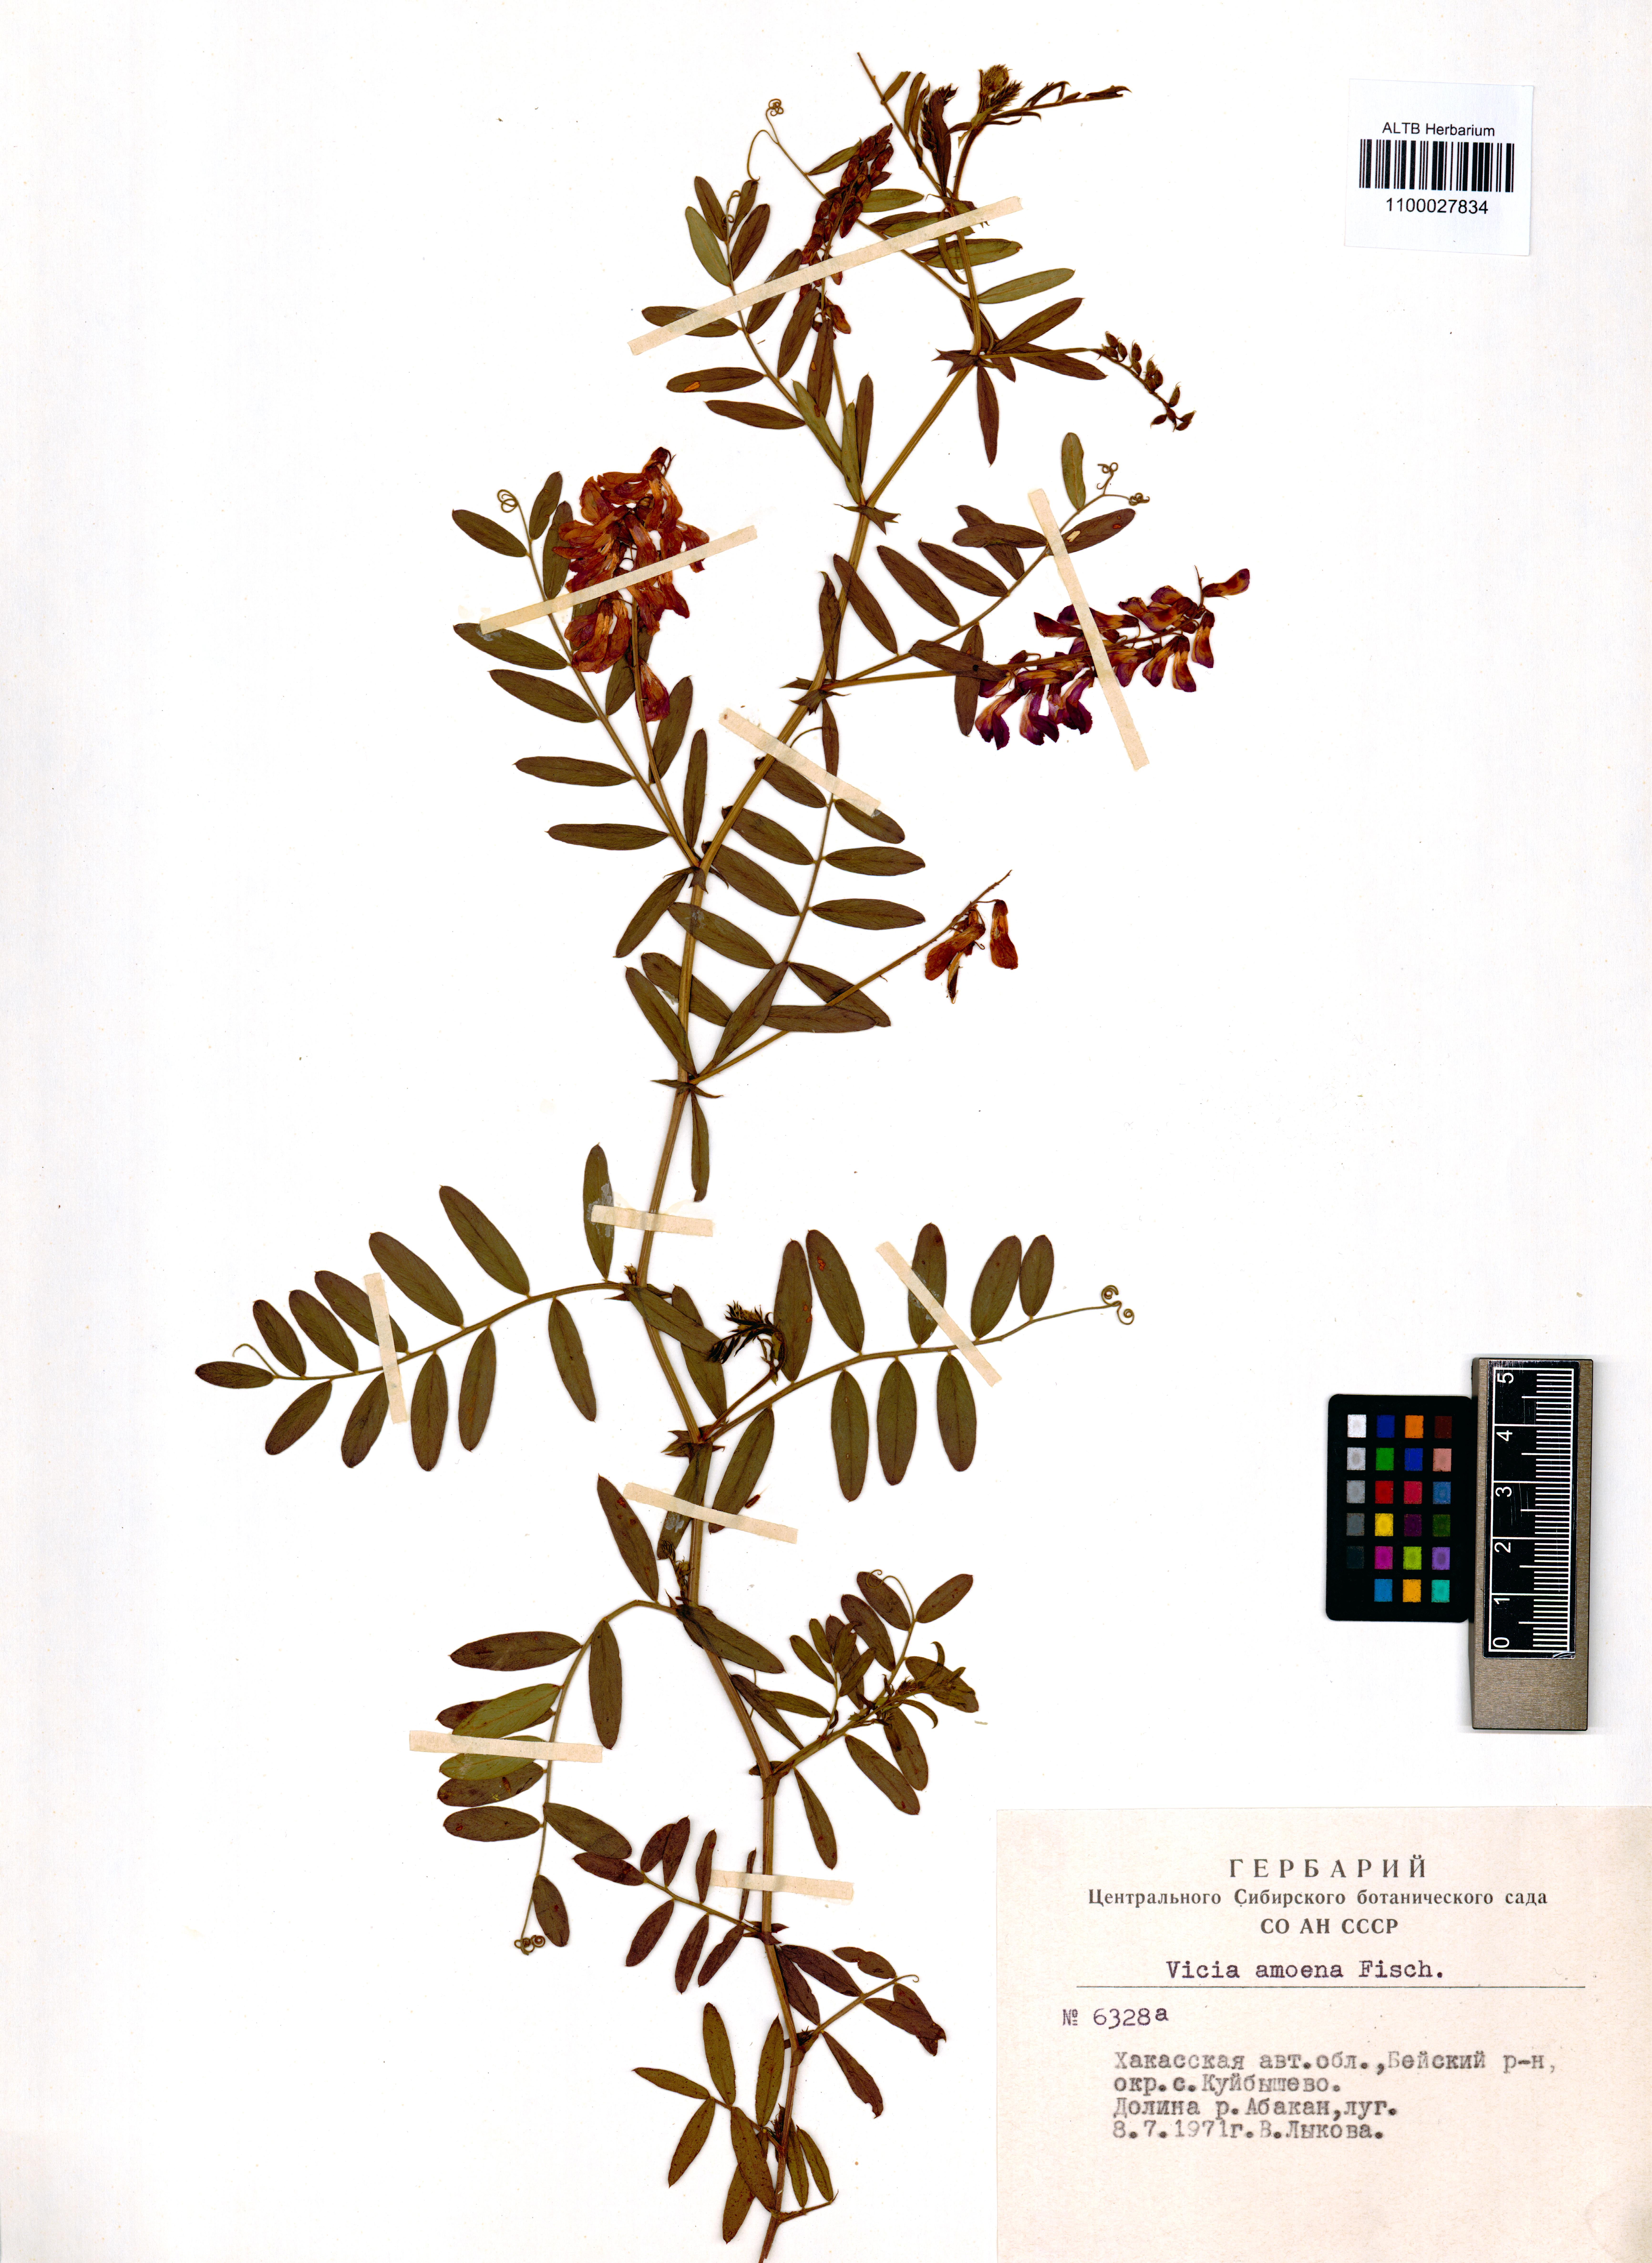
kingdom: Plantae
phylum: Tracheophyta
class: Magnoliopsida
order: Fabales
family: Fabaceae
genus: Vicia
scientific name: Vicia amoena
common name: Cheder ebs
